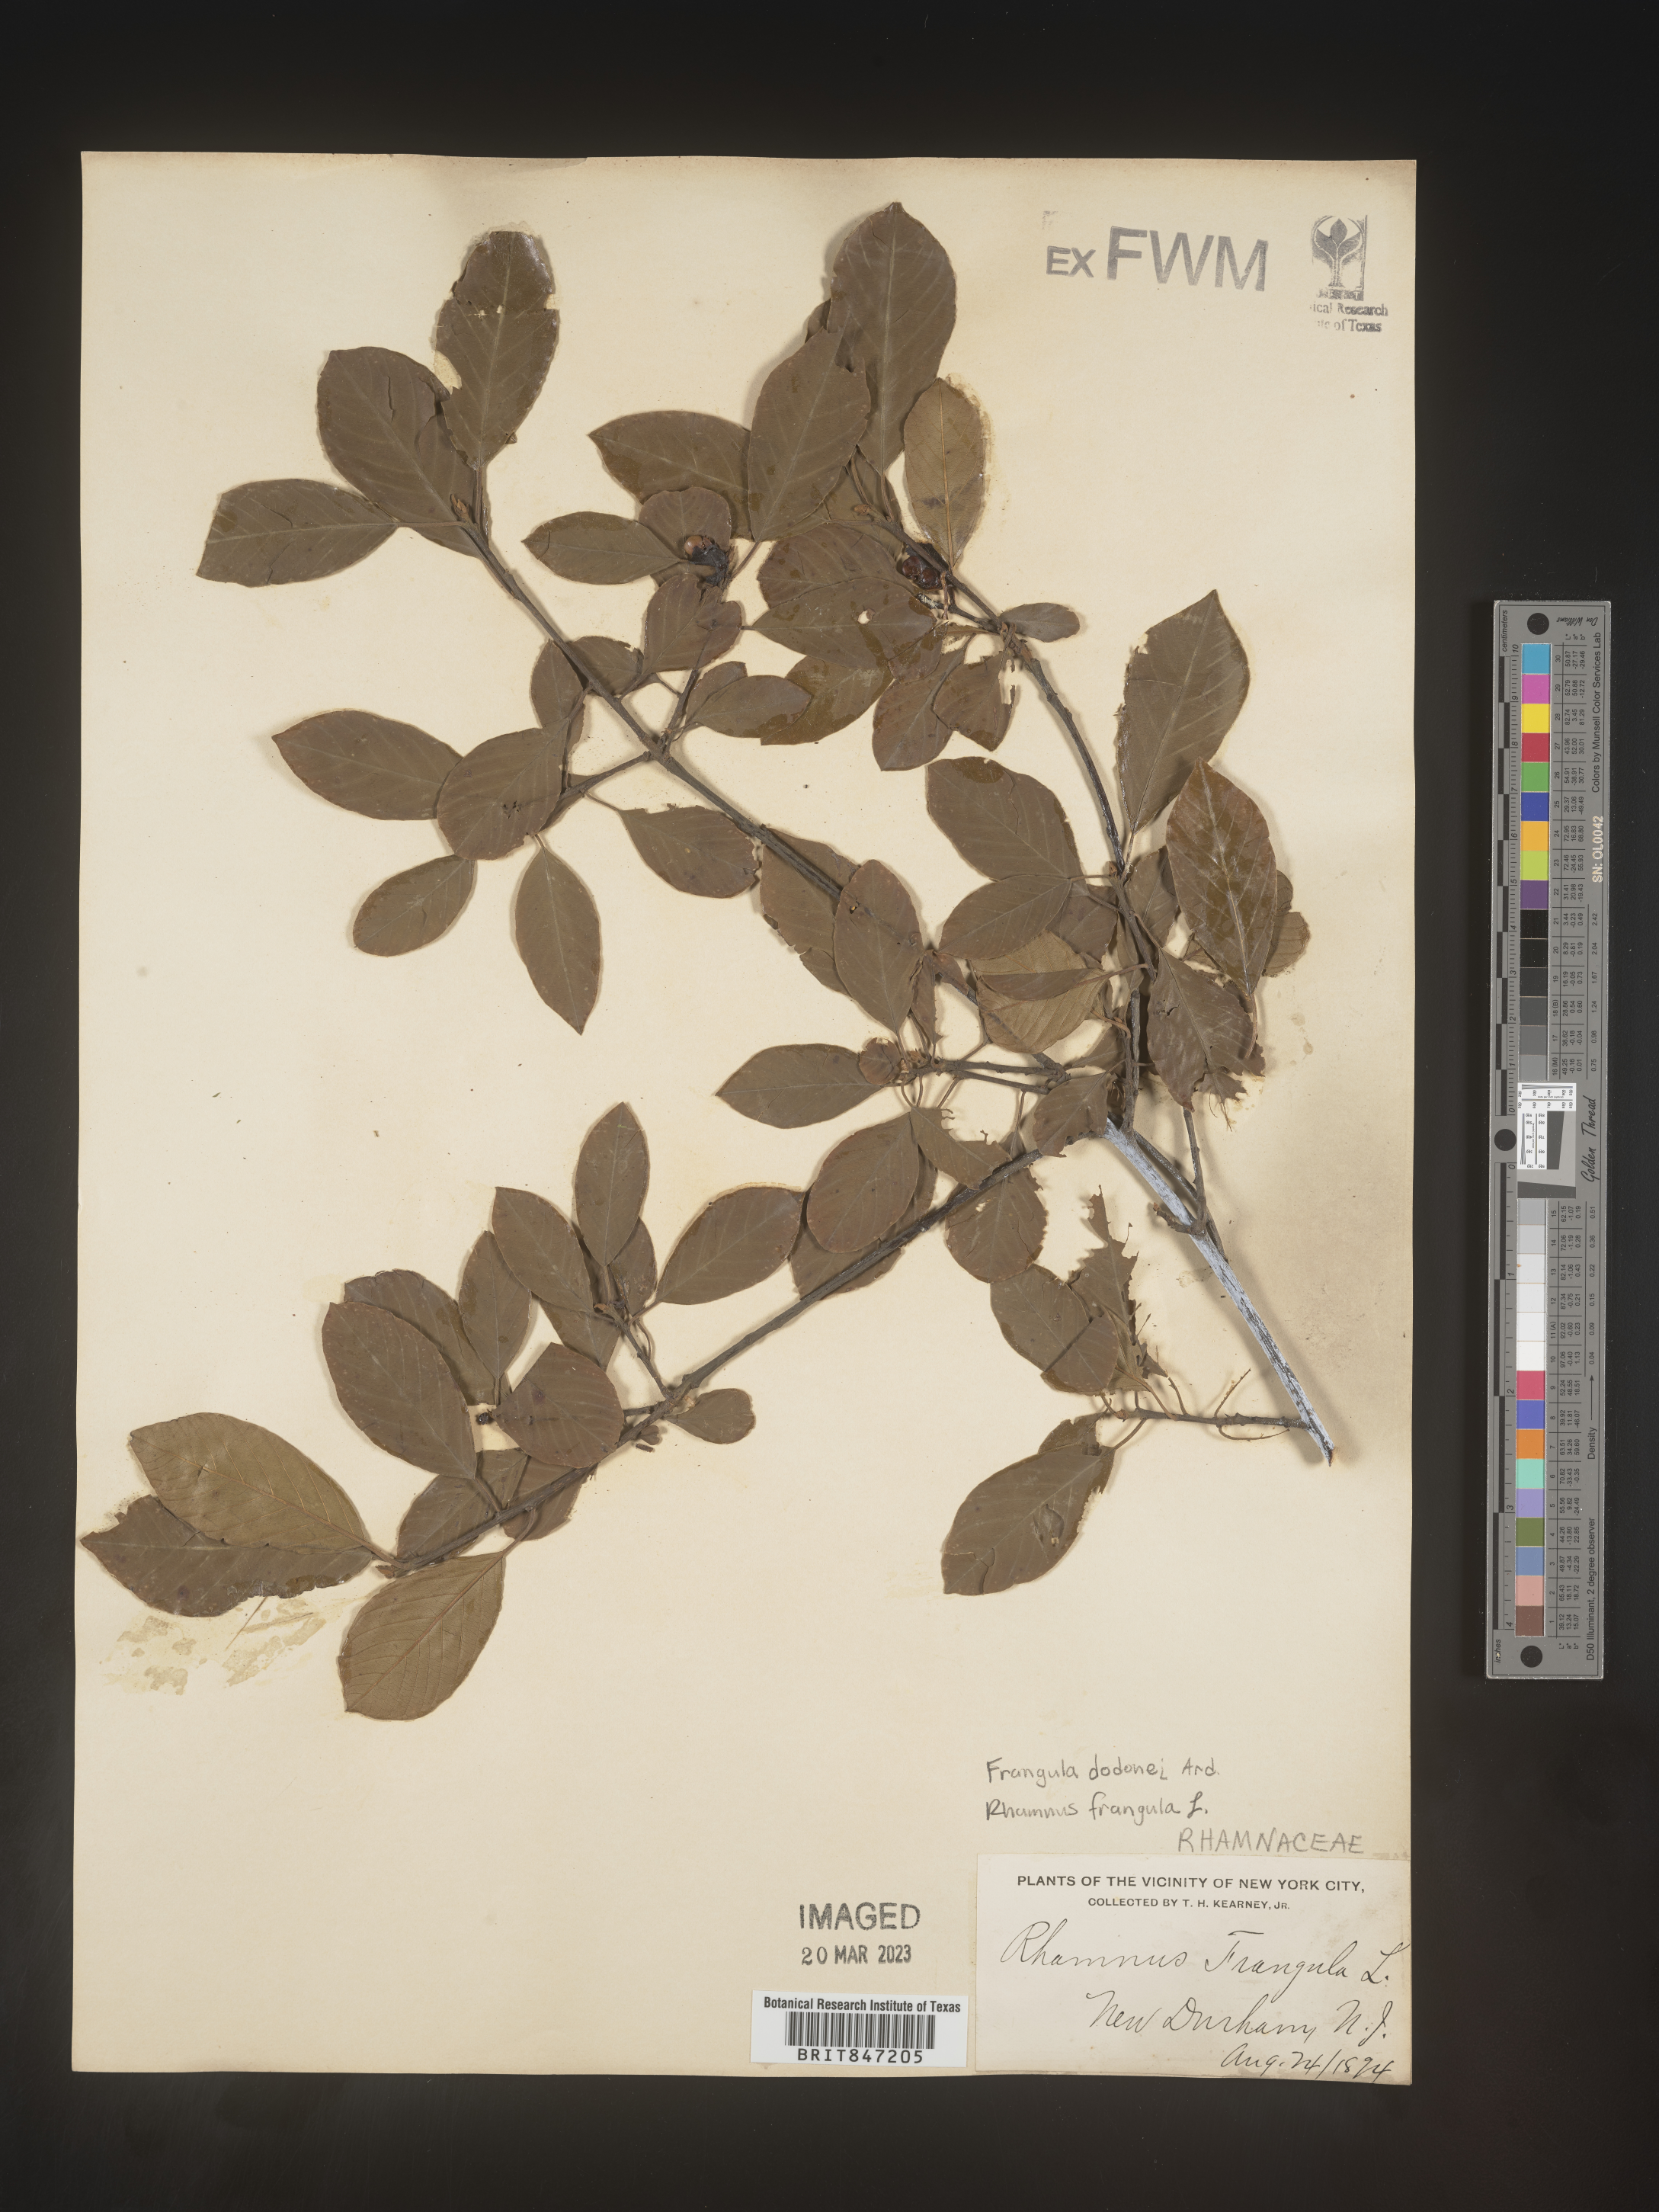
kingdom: Plantae
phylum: Tracheophyta
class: Magnoliopsida
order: Rosales
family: Rhamnaceae
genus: Frangula
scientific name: Frangula
